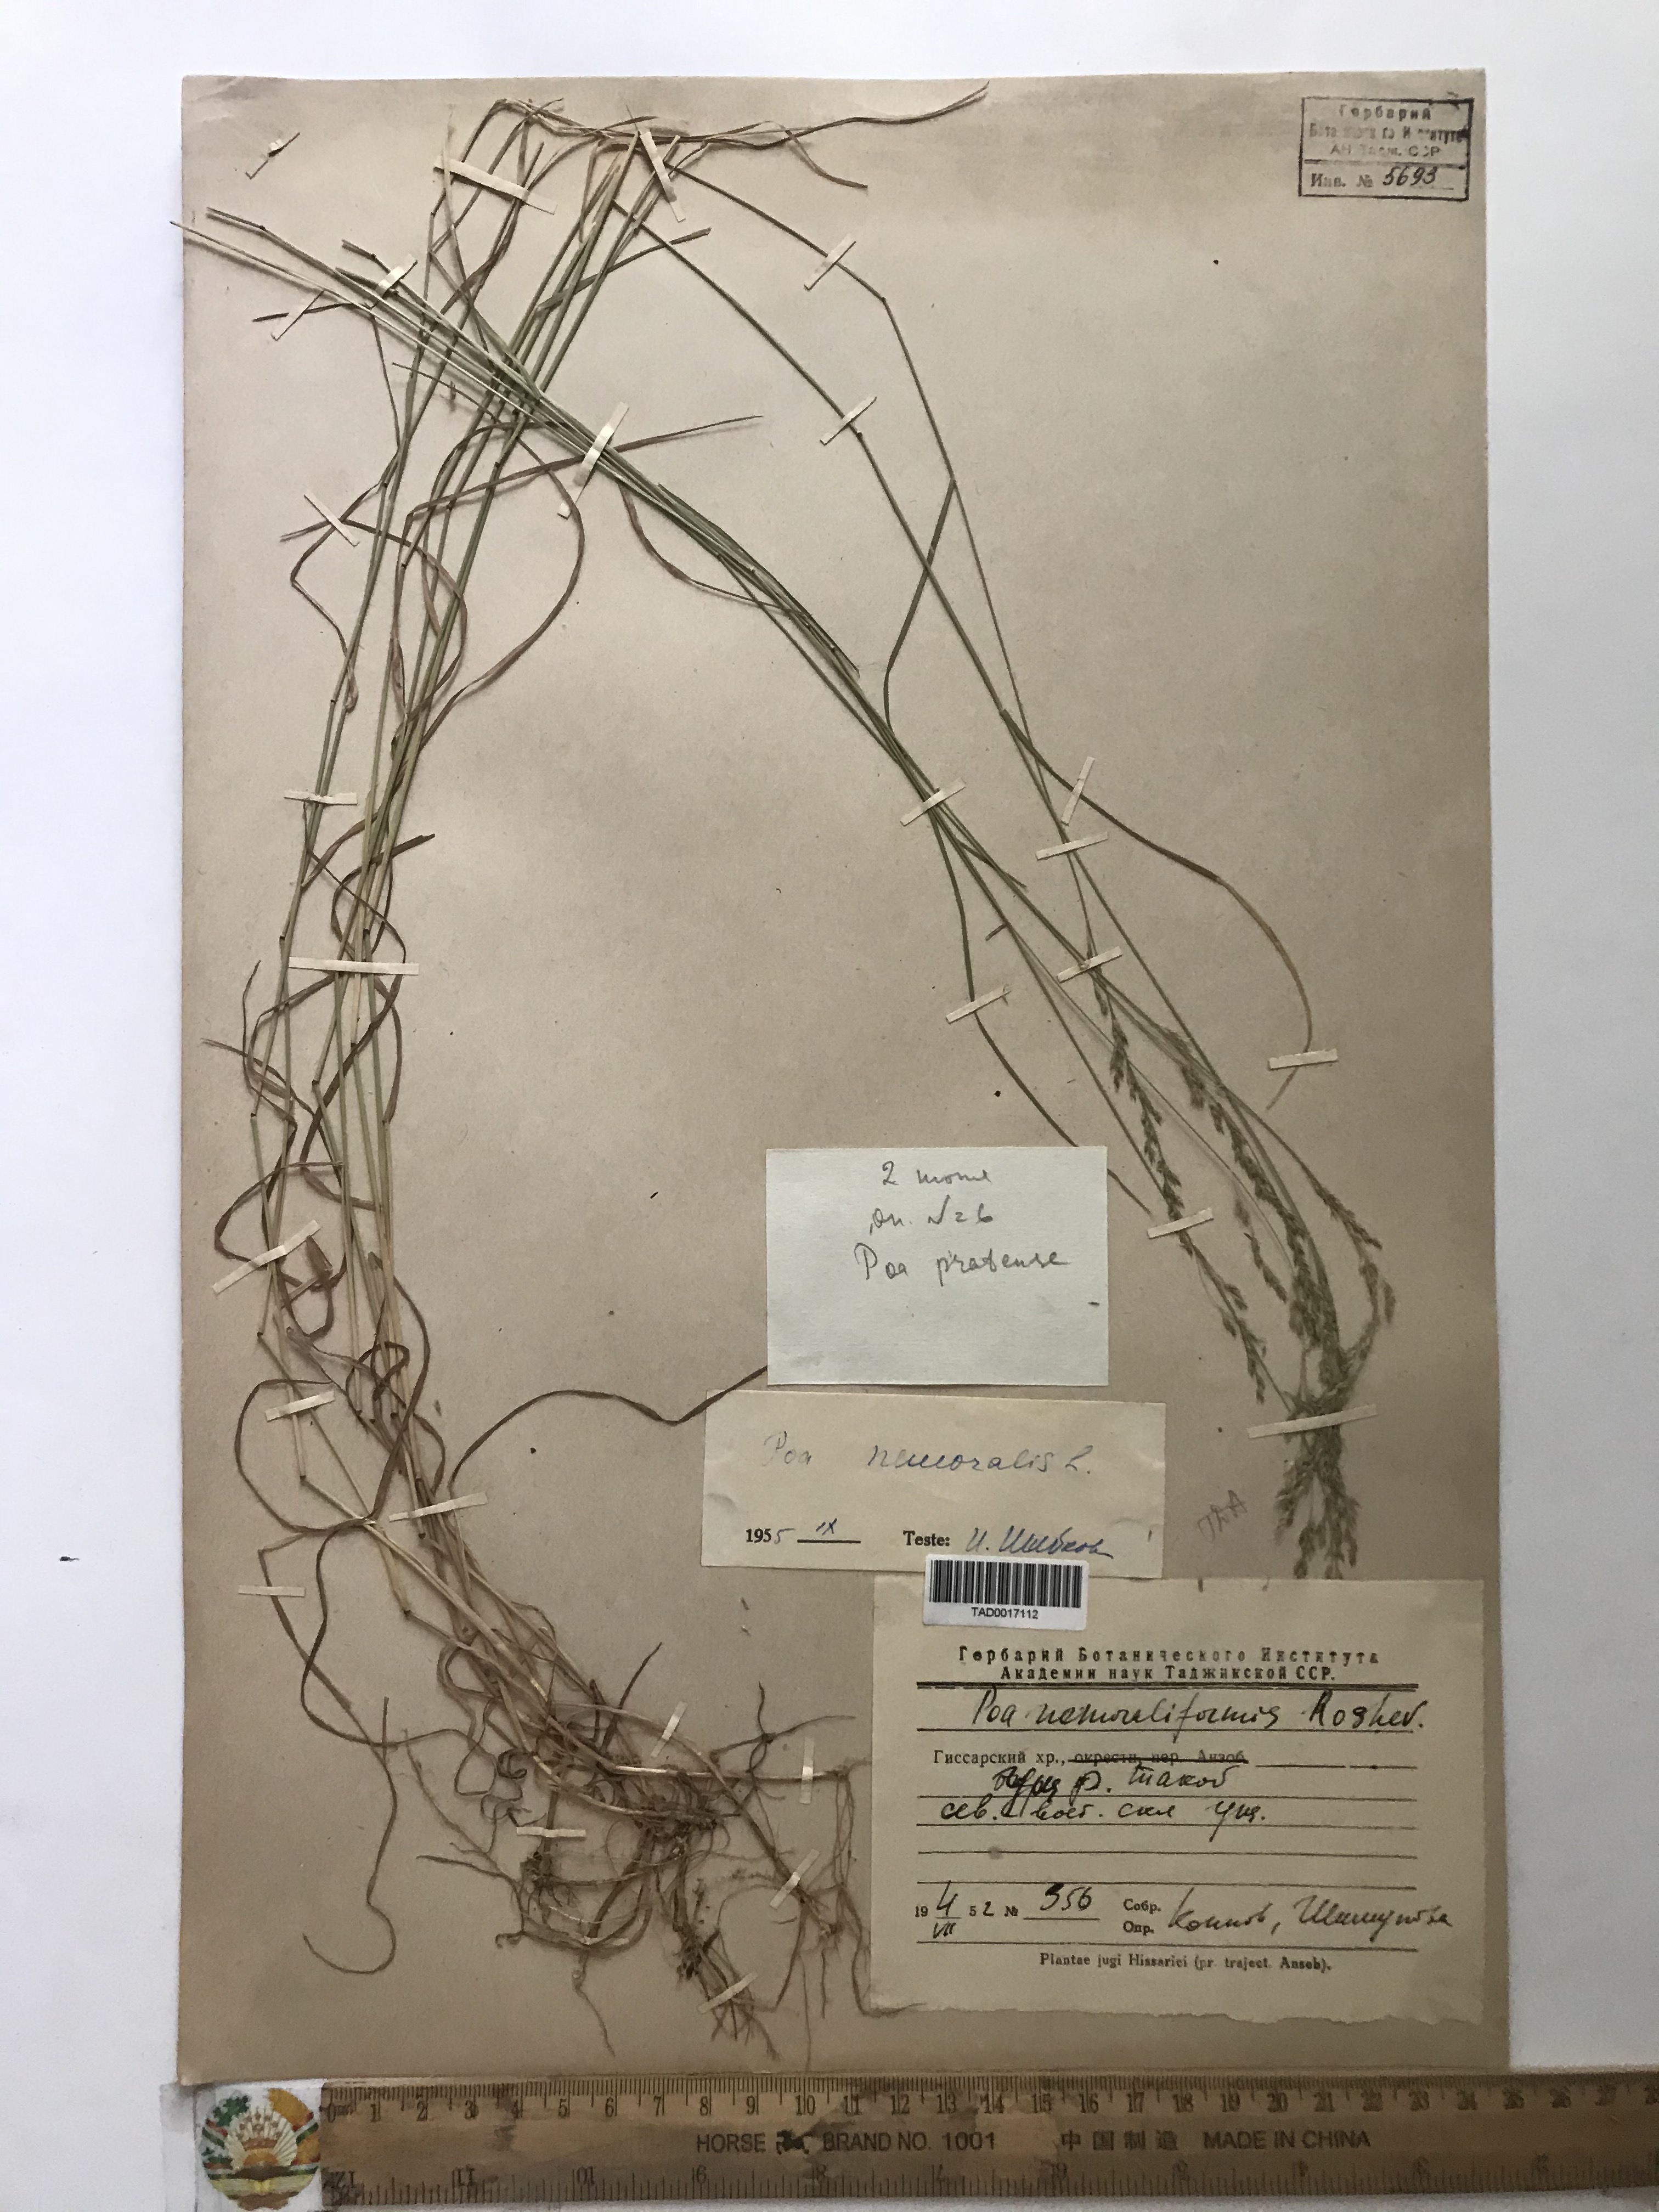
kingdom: Plantae
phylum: Tracheophyta
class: Liliopsida
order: Poales
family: Poaceae
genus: Poa
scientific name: Poa nemoralis
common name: Wood bluegrass
